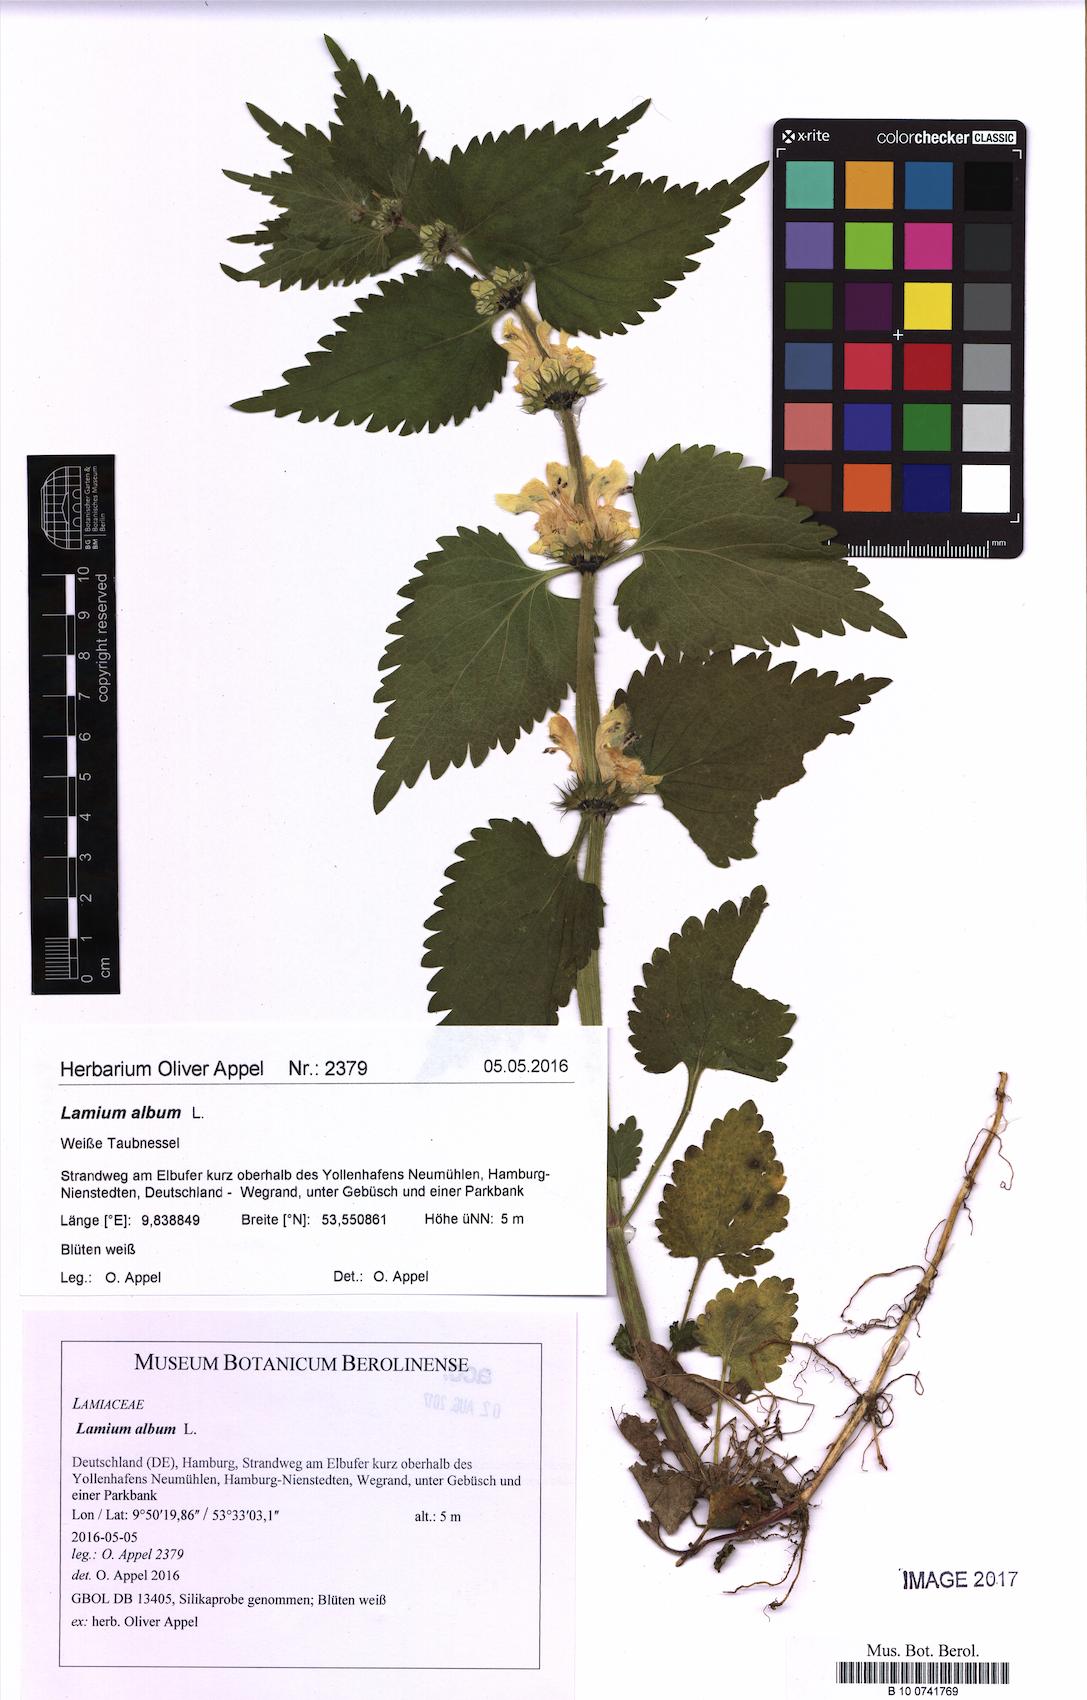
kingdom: Plantae
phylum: Tracheophyta
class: Magnoliopsida
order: Lamiales
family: Lamiaceae
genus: Lamium
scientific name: Lamium album
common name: White dead-nettle
